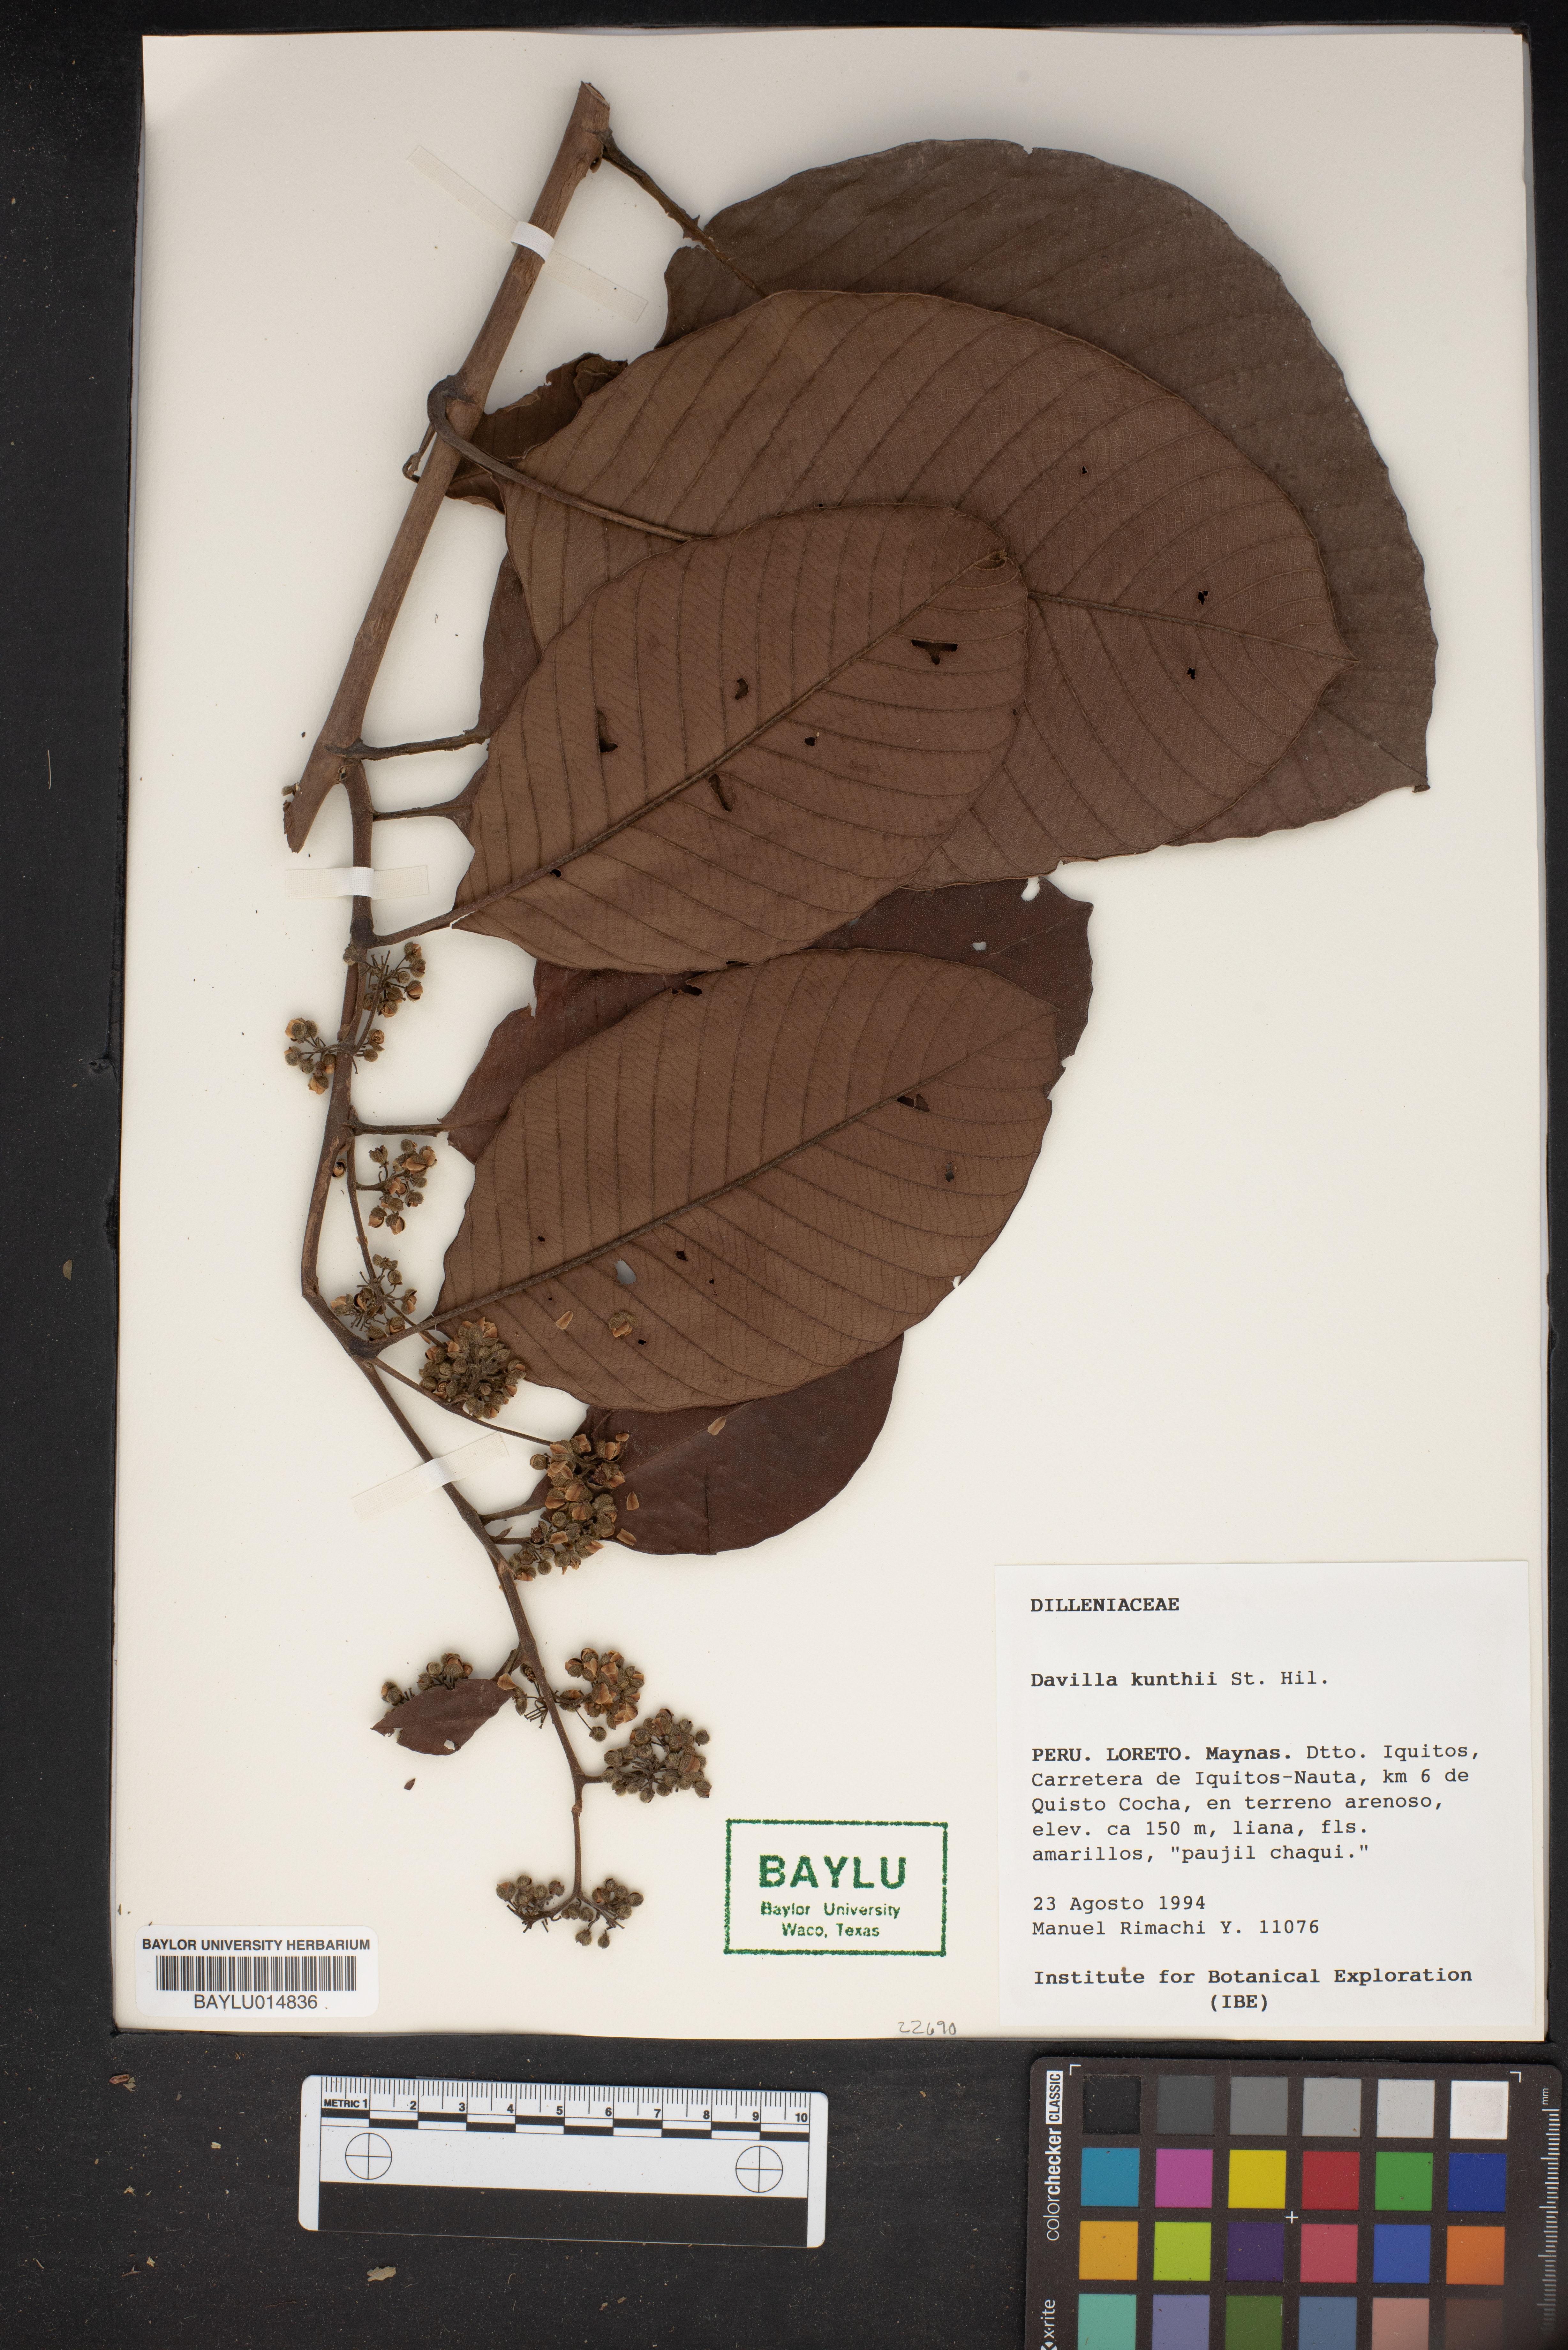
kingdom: Plantae
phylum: Tracheophyta
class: Magnoliopsida
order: Dilleniales
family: Dilleniaceae
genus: Davilla
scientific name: Davilla kunthii
